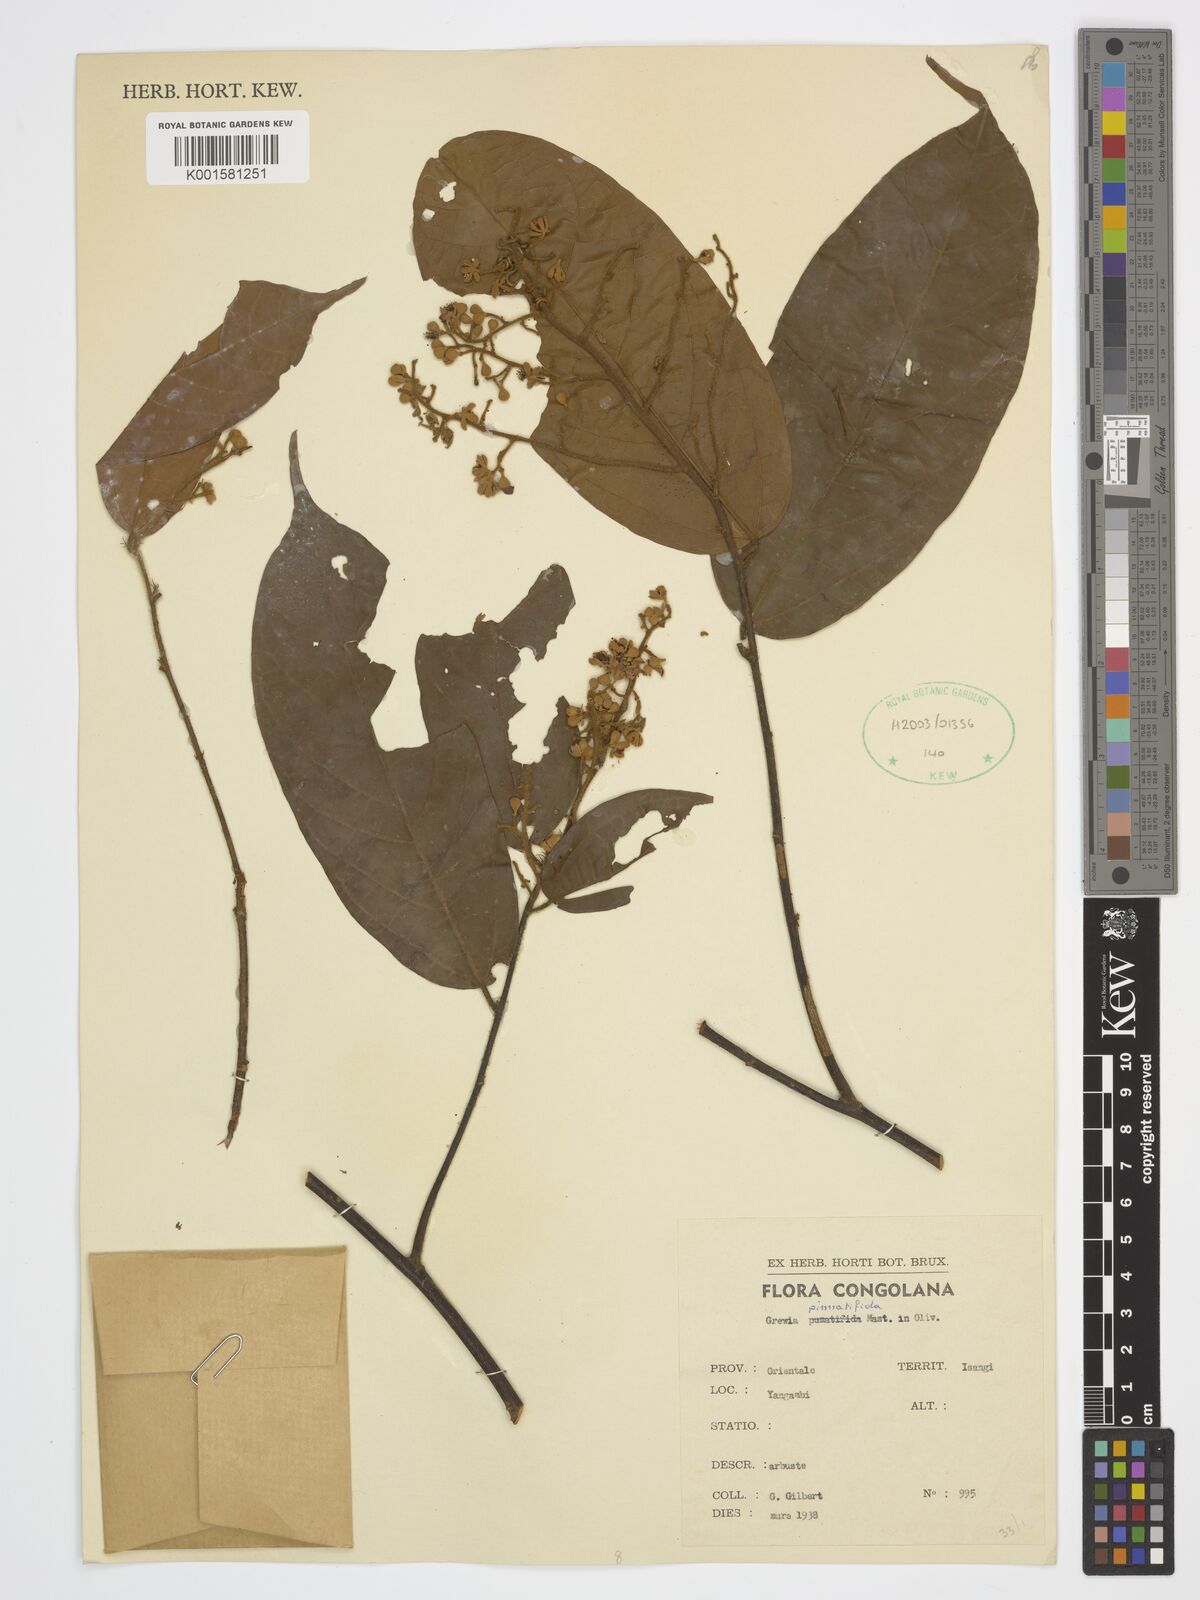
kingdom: Plantae
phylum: Tracheophyta
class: Magnoliopsida
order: Malvales
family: Malvaceae
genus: Microcos
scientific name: Microcos pinnatifida
